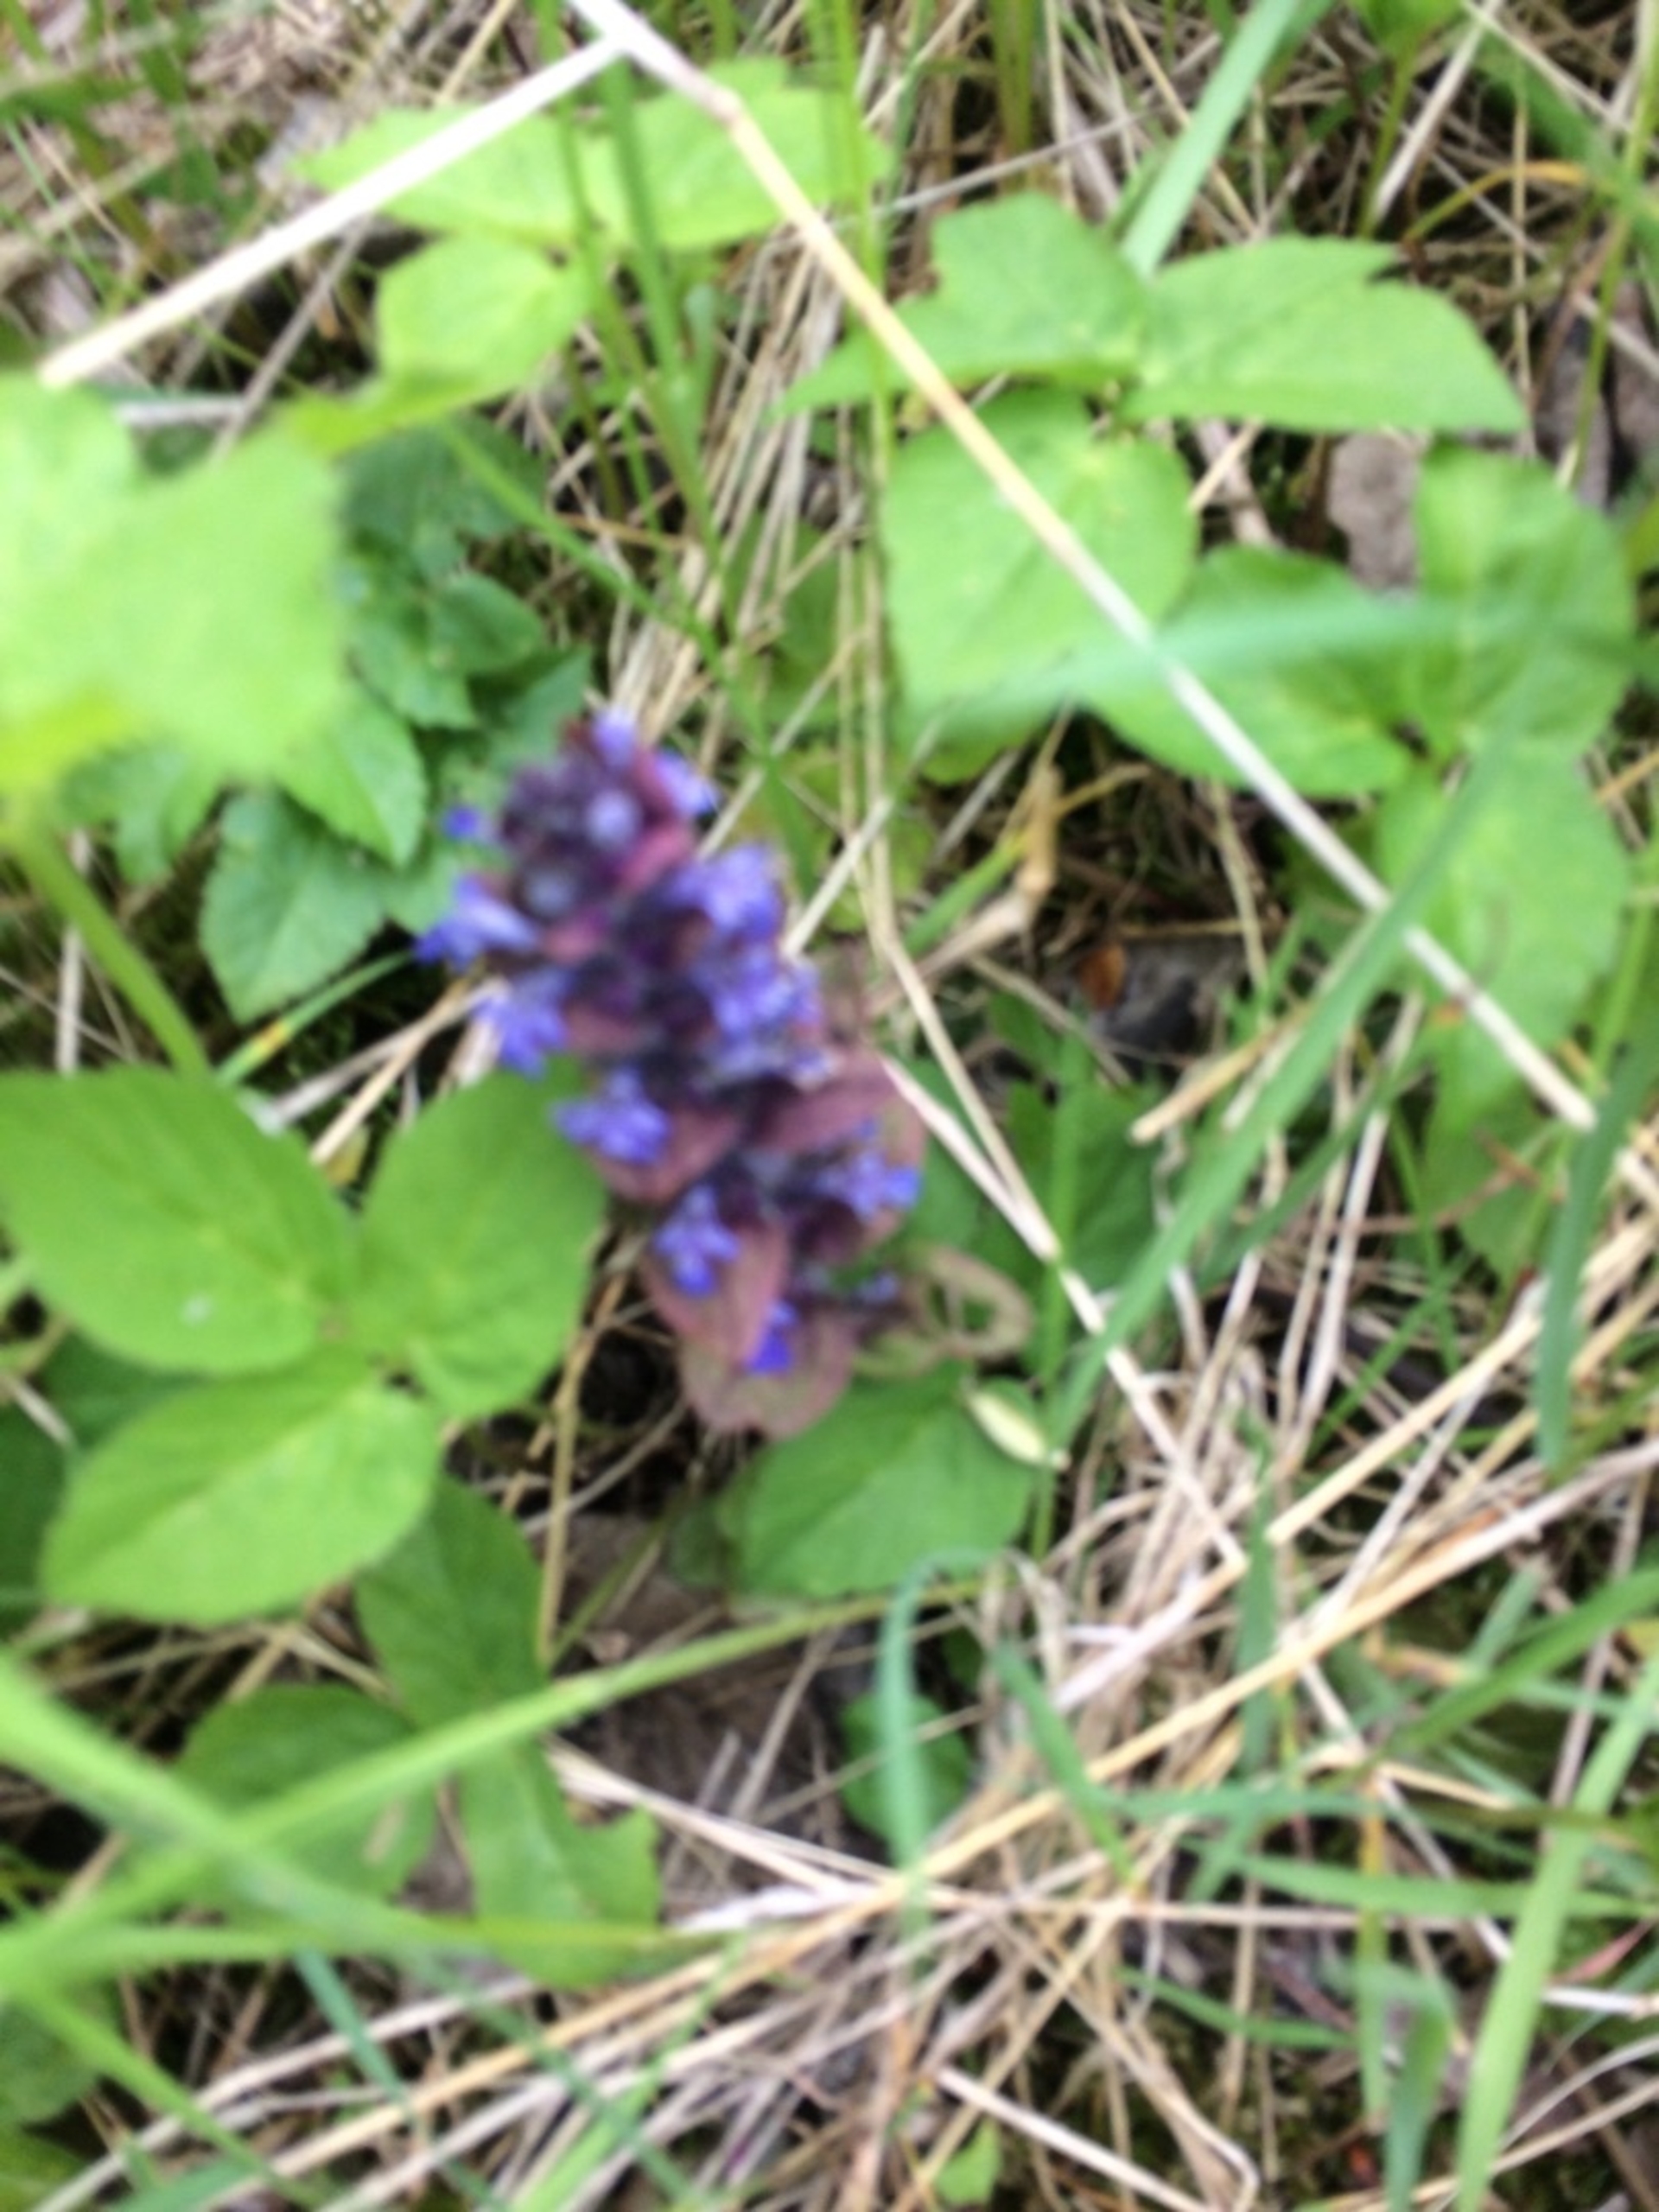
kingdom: Plantae
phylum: Tracheophyta
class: Magnoliopsida
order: Lamiales
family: Lamiaceae
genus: Ajuga
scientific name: Ajuga reptans
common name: Krybende læbeløs
